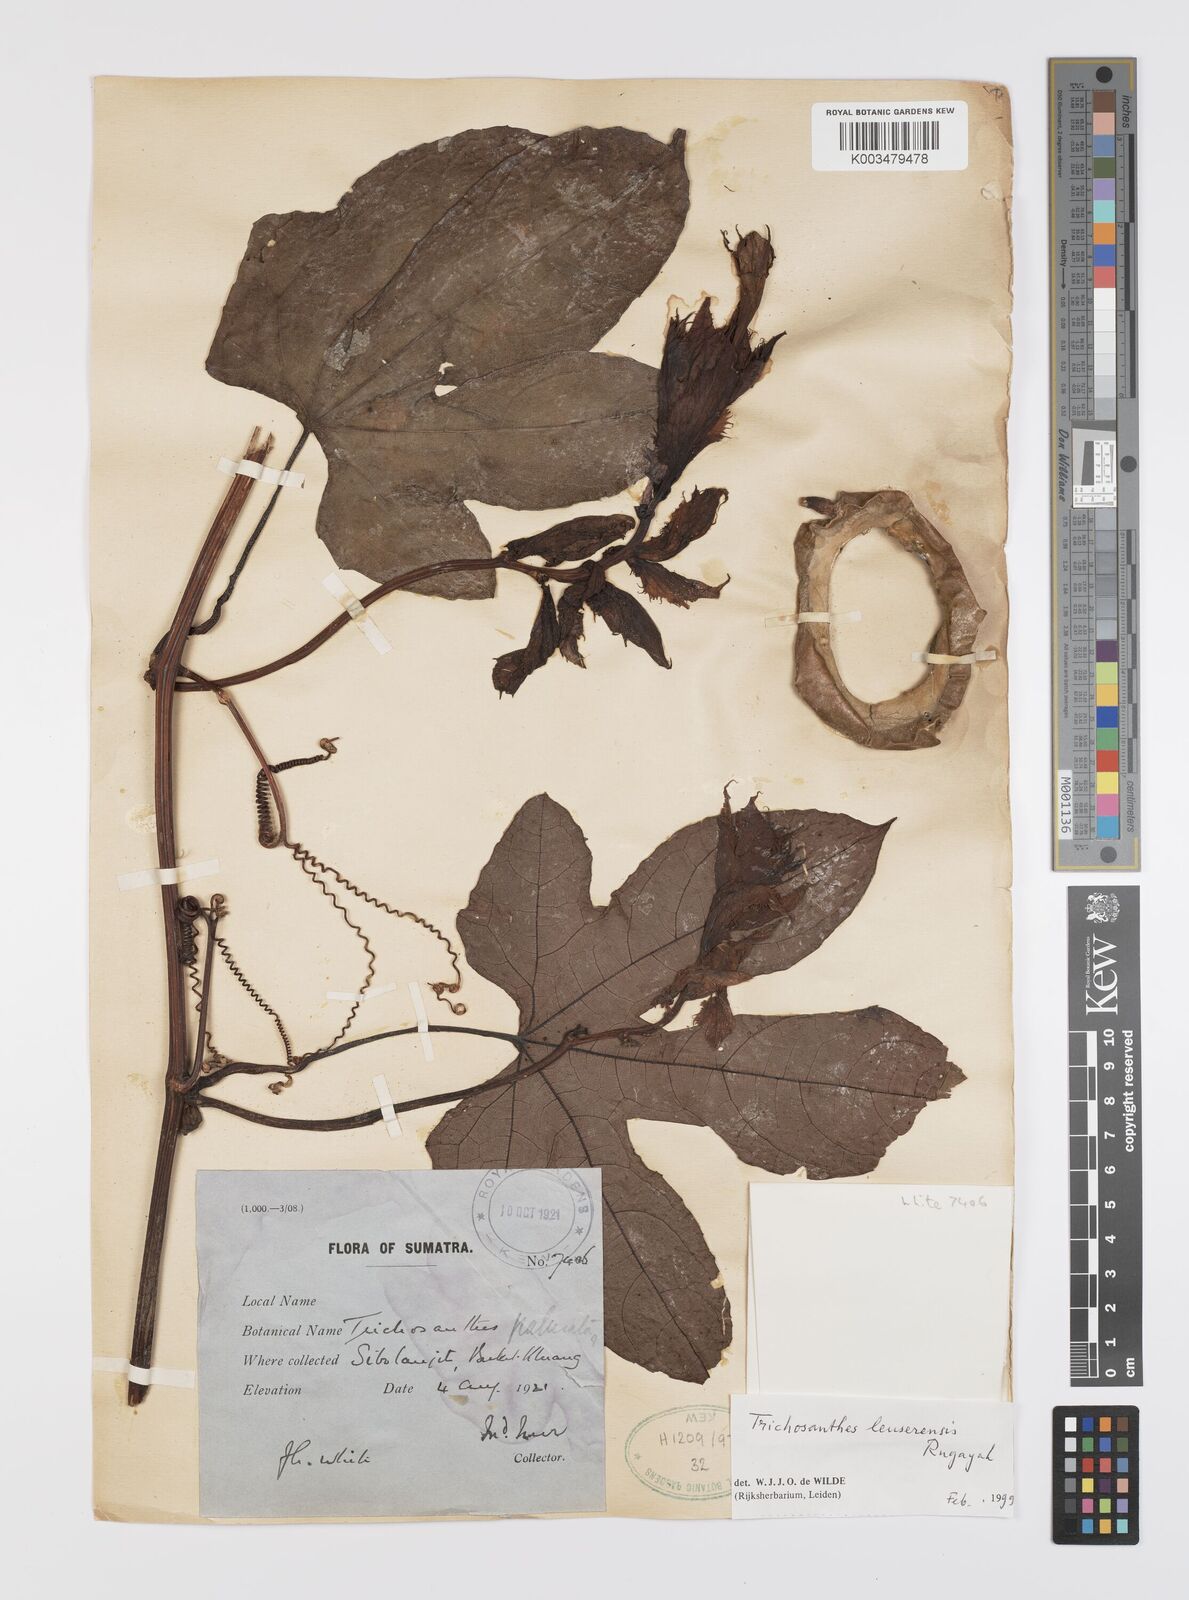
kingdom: Plantae
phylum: Tracheophyta
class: Magnoliopsida
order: Cucurbitales
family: Cucurbitaceae
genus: Trichosanthes
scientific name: Trichosanthes leuserensis
